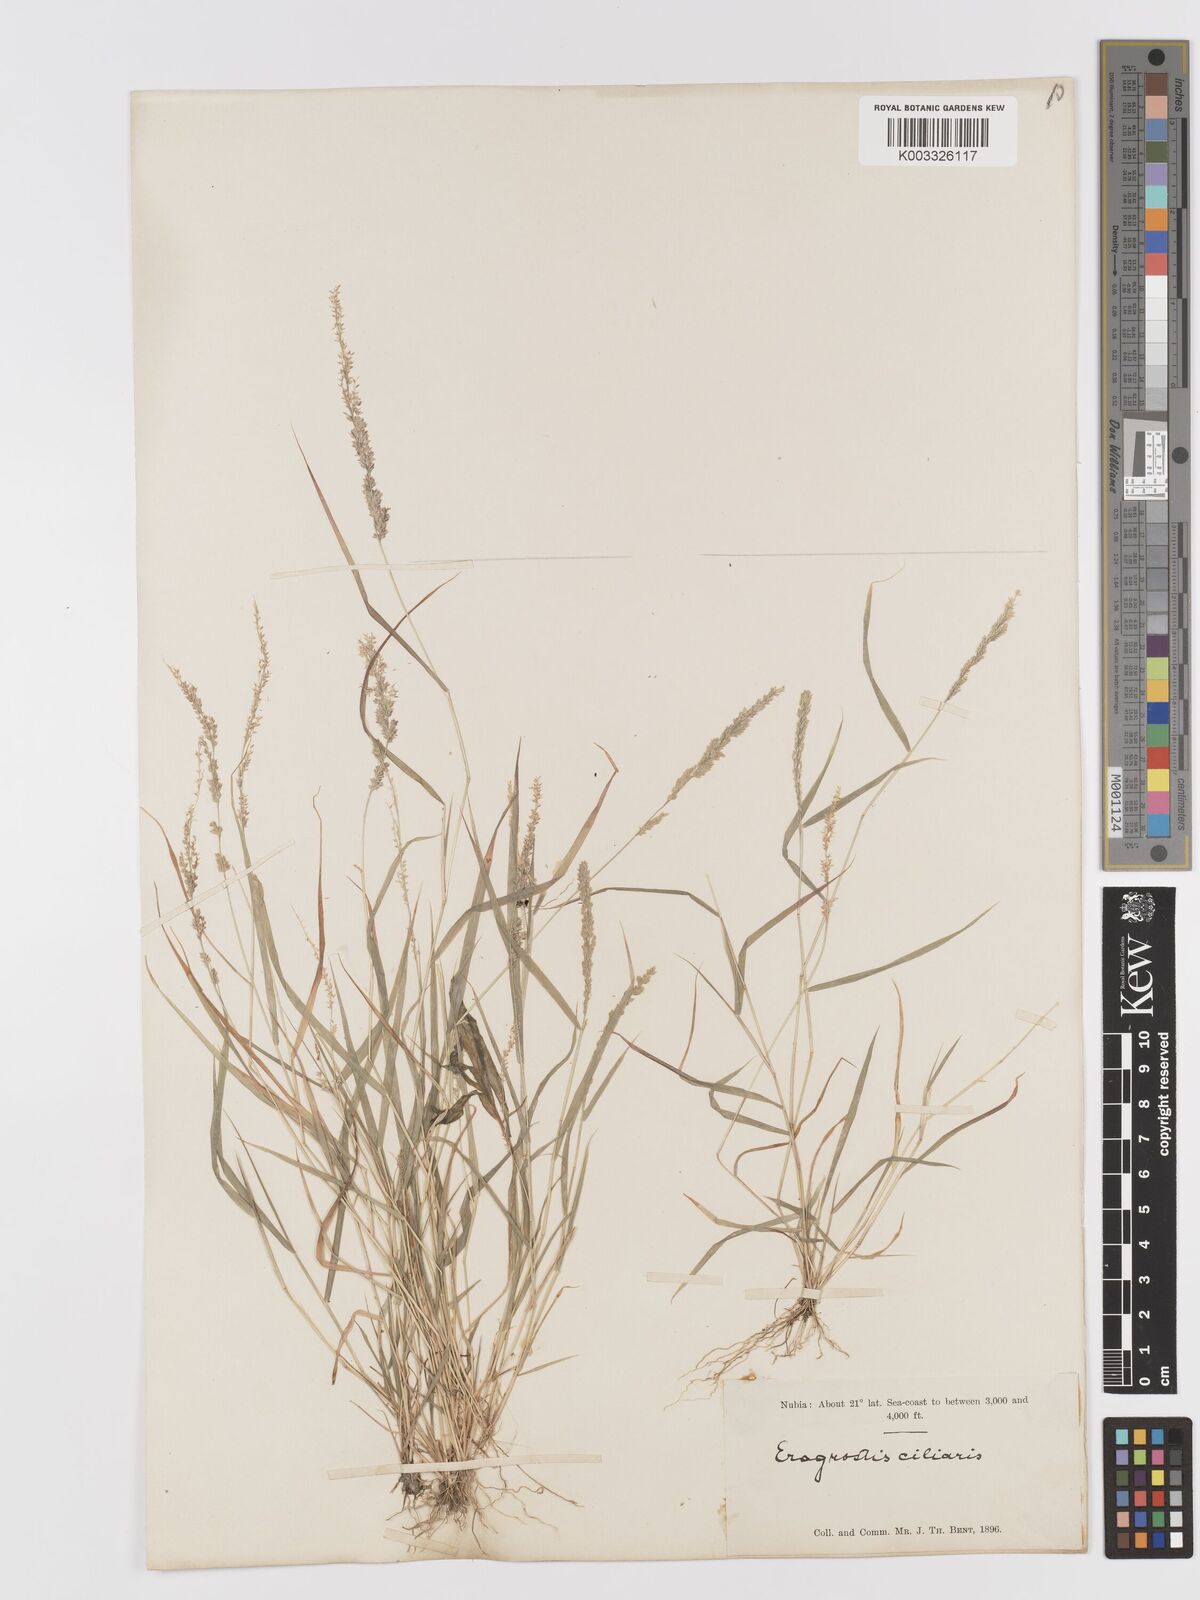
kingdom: Plantae
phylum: Tracheophyta
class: Liliopsida
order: Poales
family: Poaceae
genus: Eragrostis
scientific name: Eragrostis ciliaris
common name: Gophertail lovegrass
